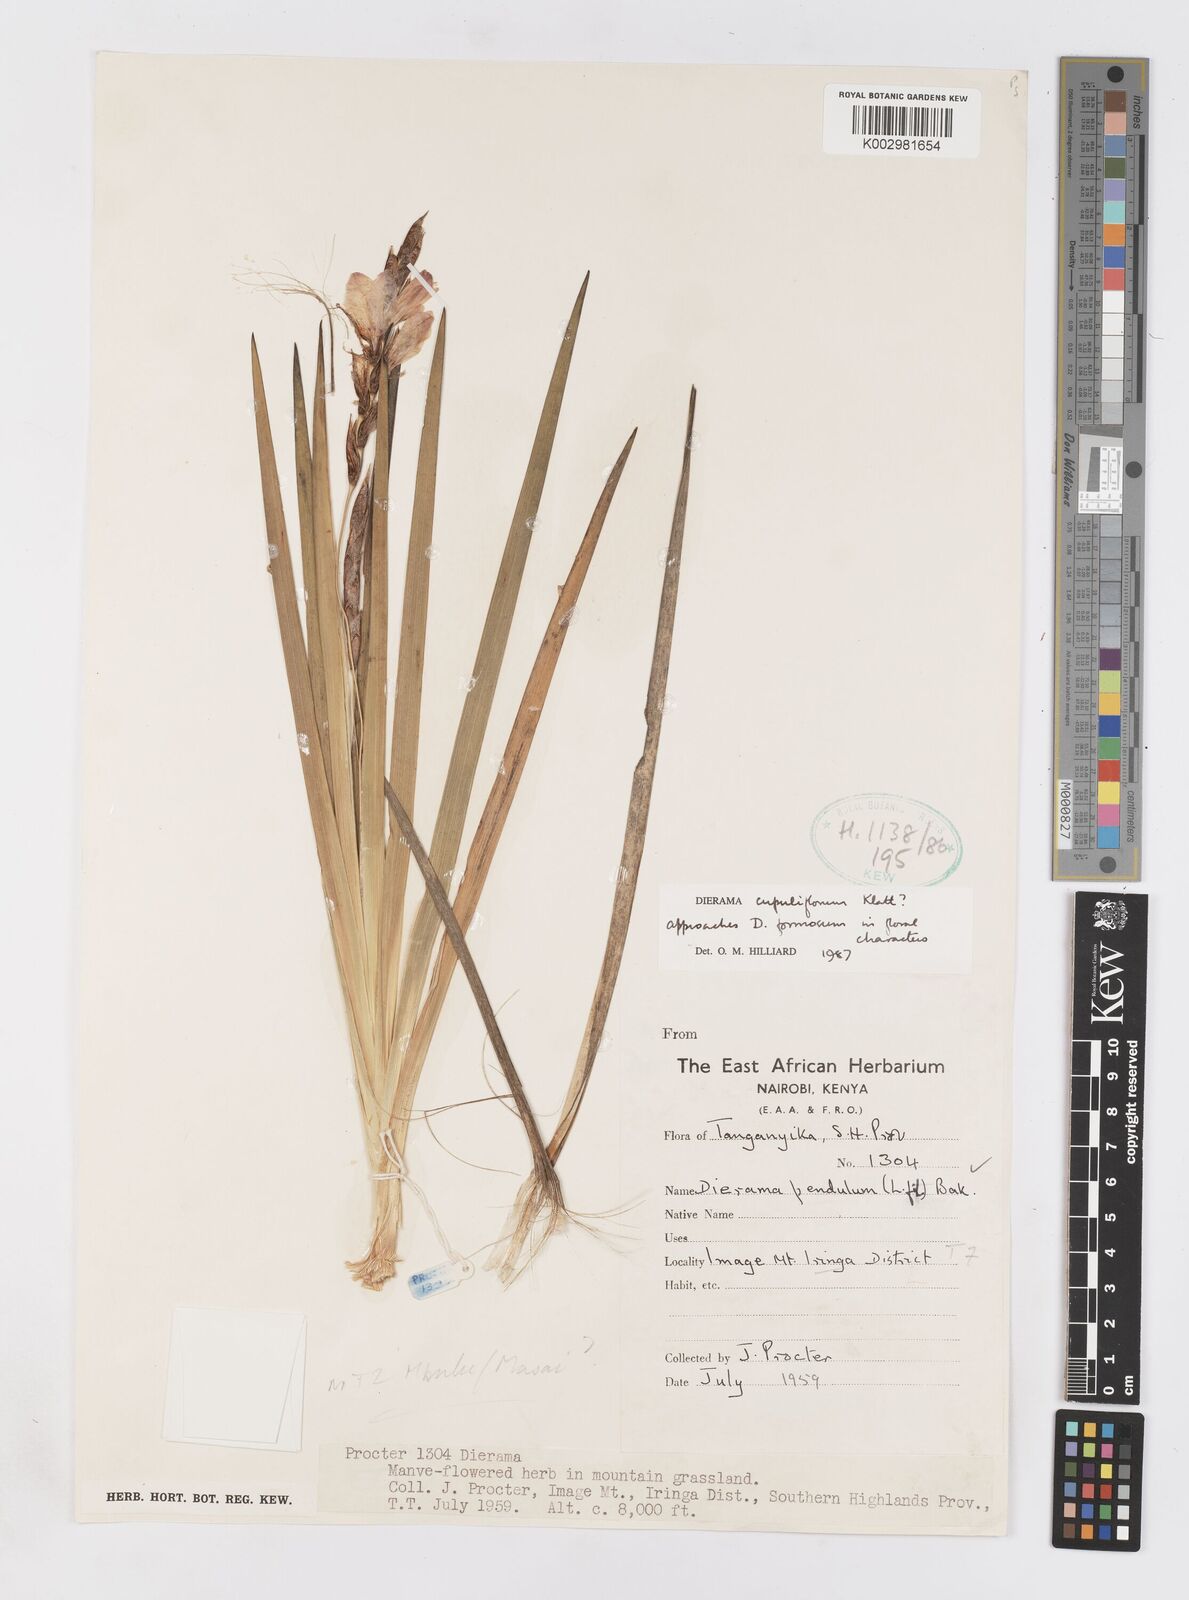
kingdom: Plantae
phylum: Tracheophyta
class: Liliopsida
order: Asparagales
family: Iridaceae
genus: Dierama
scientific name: Dierama cupuliflorum
